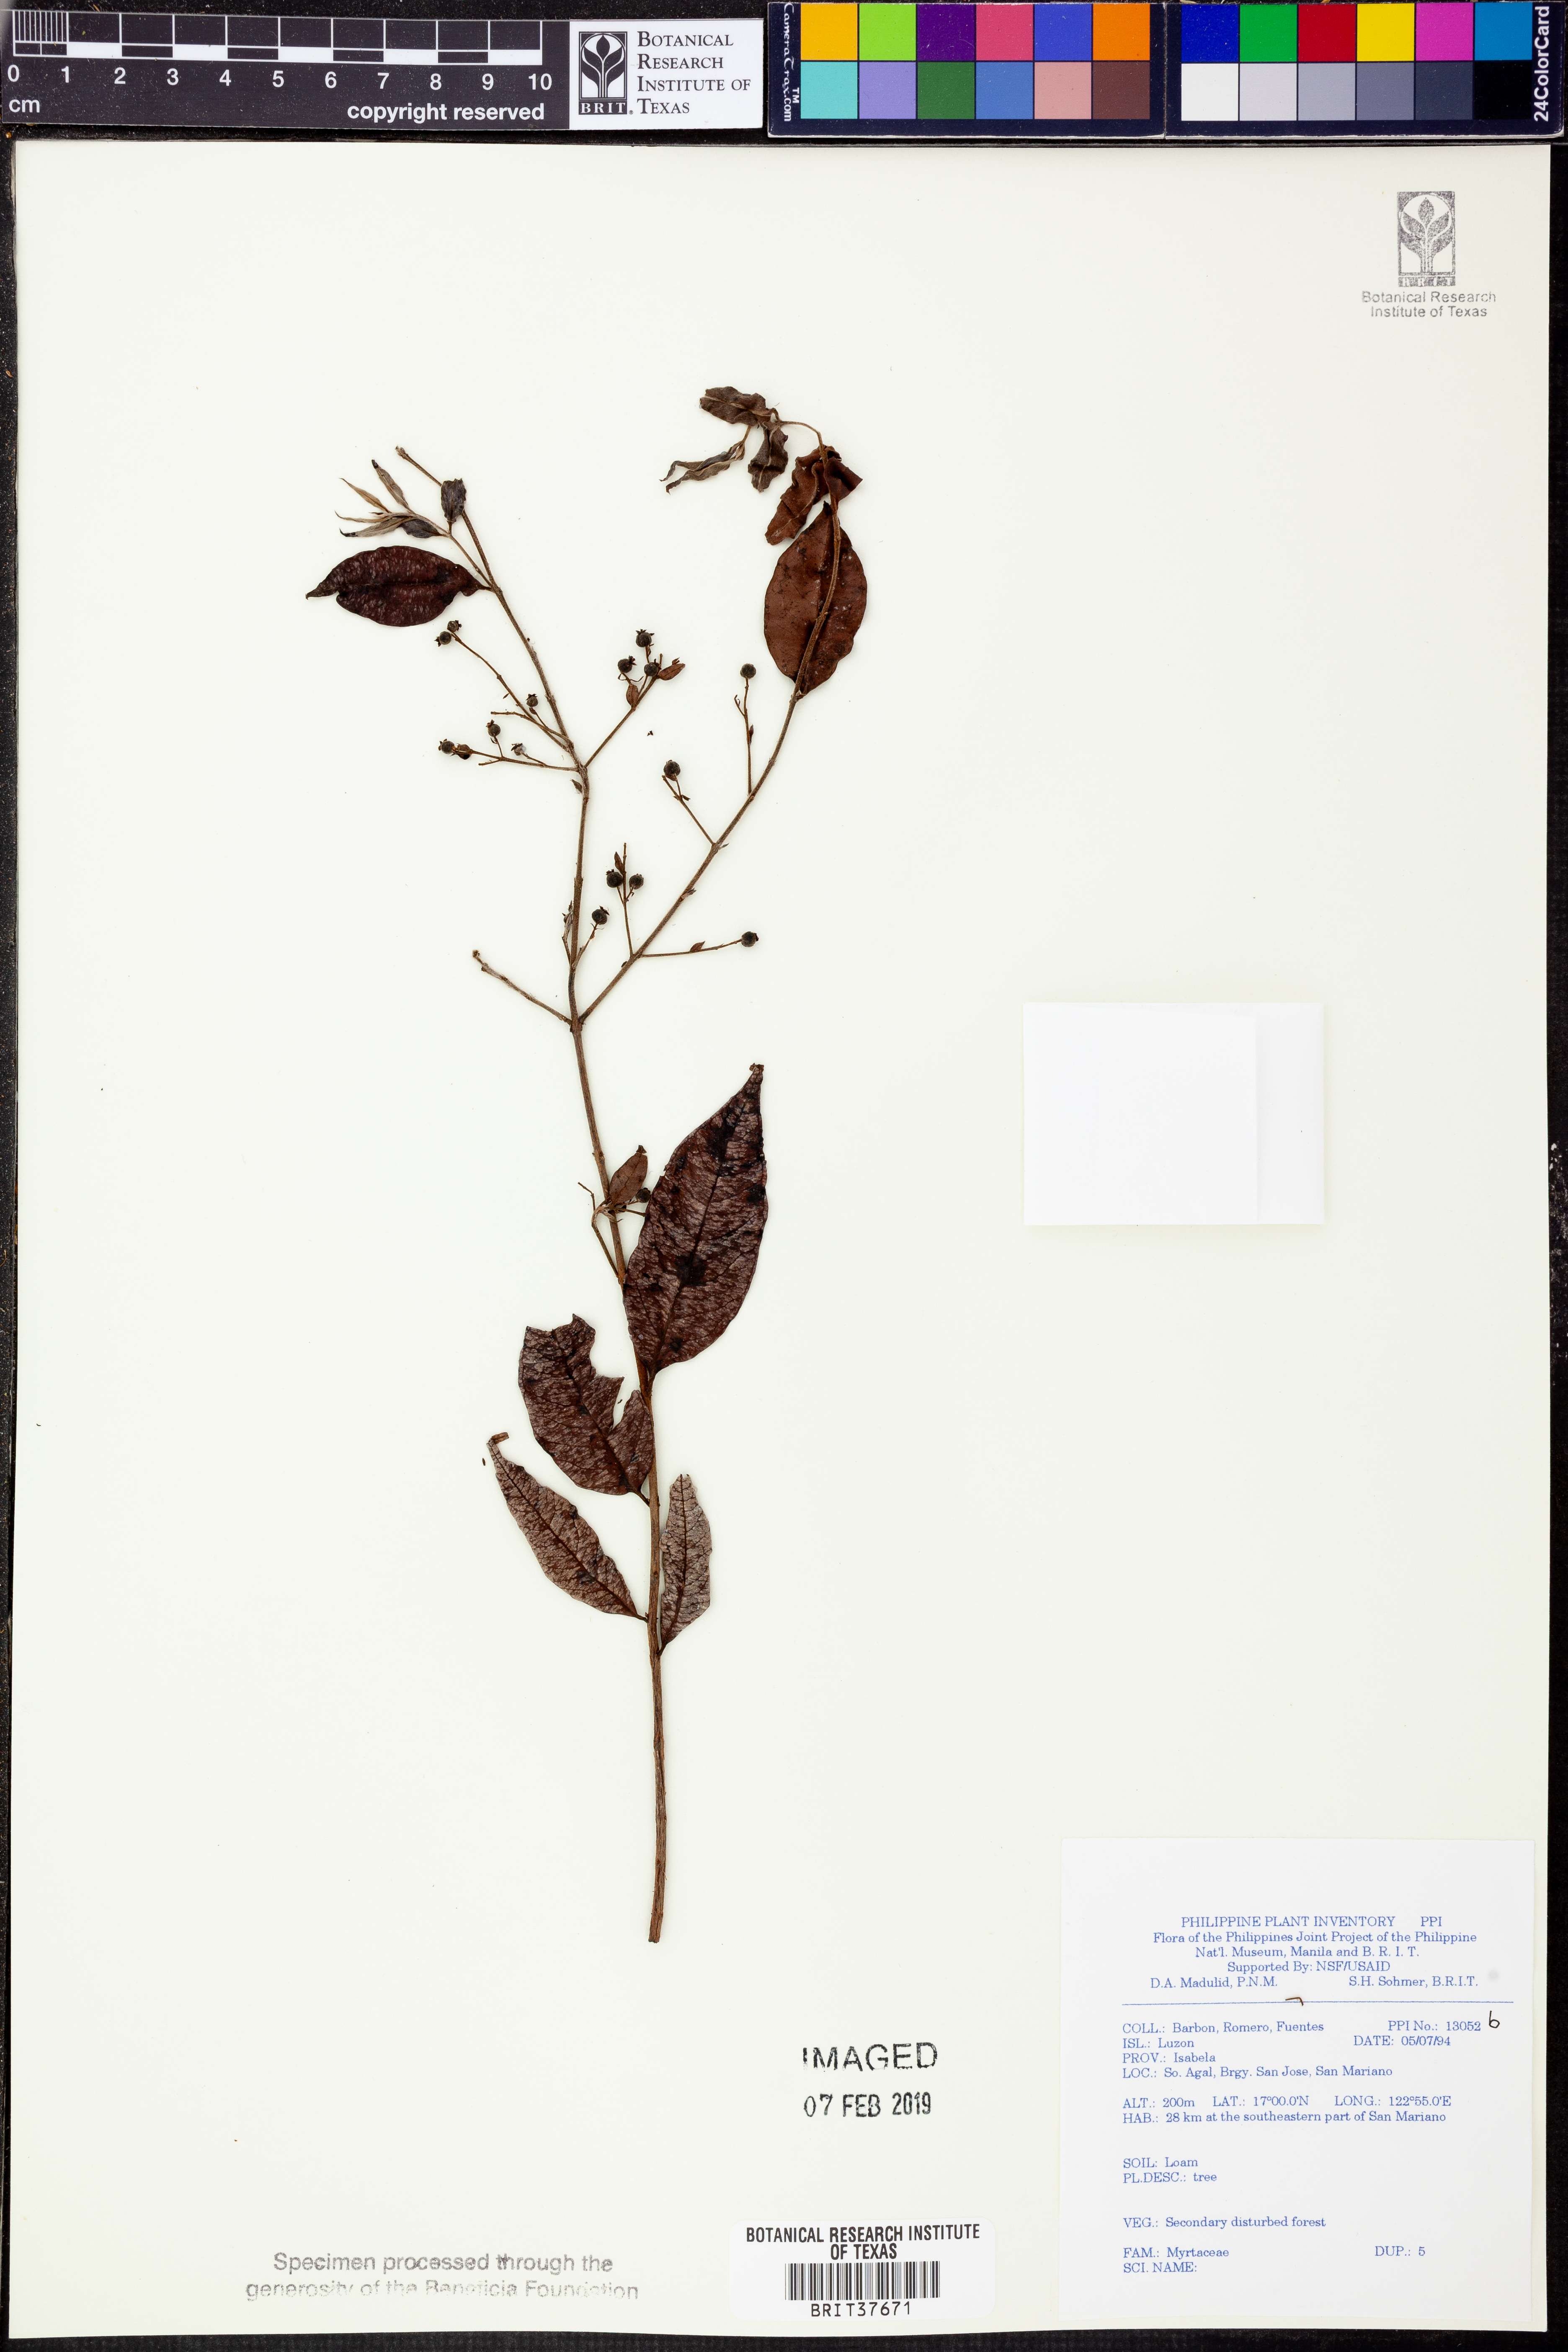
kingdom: Plantae
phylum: Tracheophyta
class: Magnoliopsida
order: Myrtales
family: Myrtaceae
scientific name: Myrtaceae
